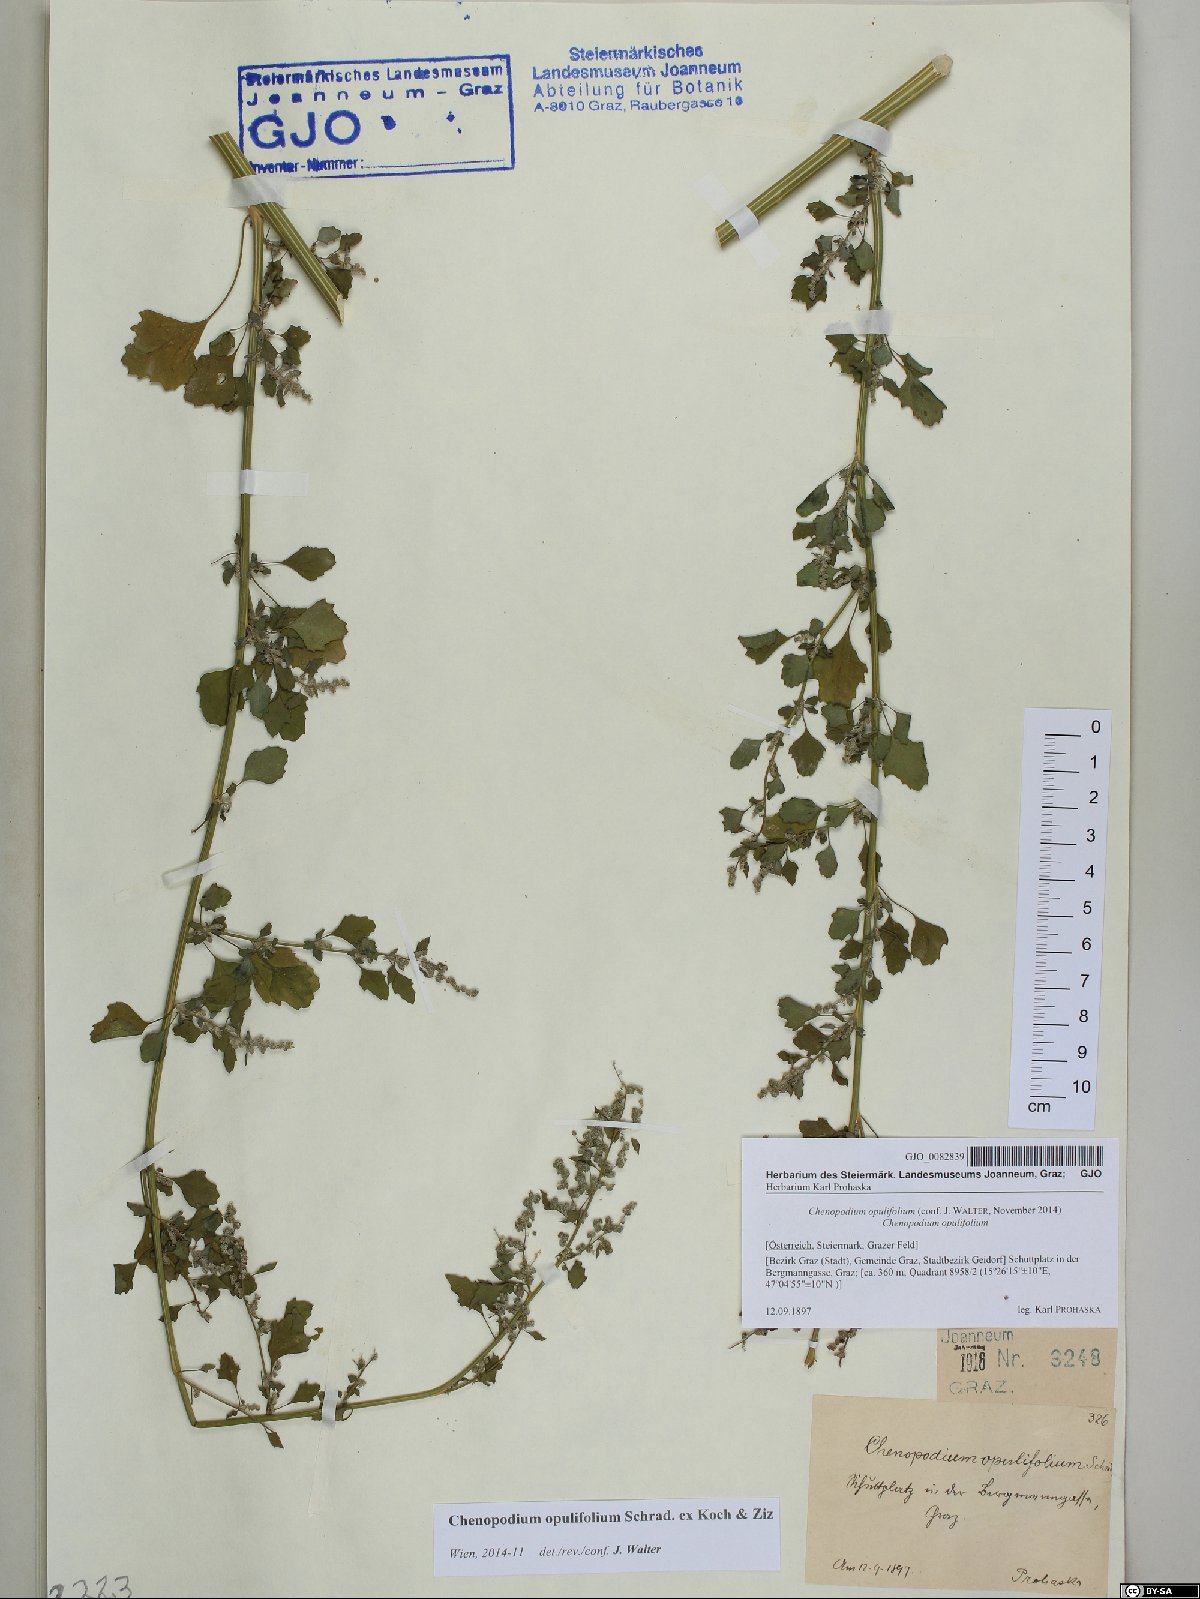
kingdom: Plantae
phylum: Tracheophyta
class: Magnoliopsida
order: Caryophyllales
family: Amaranthaceae
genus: Chenopodium
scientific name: Chenopodium opulifolium
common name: Grey goosefoot
